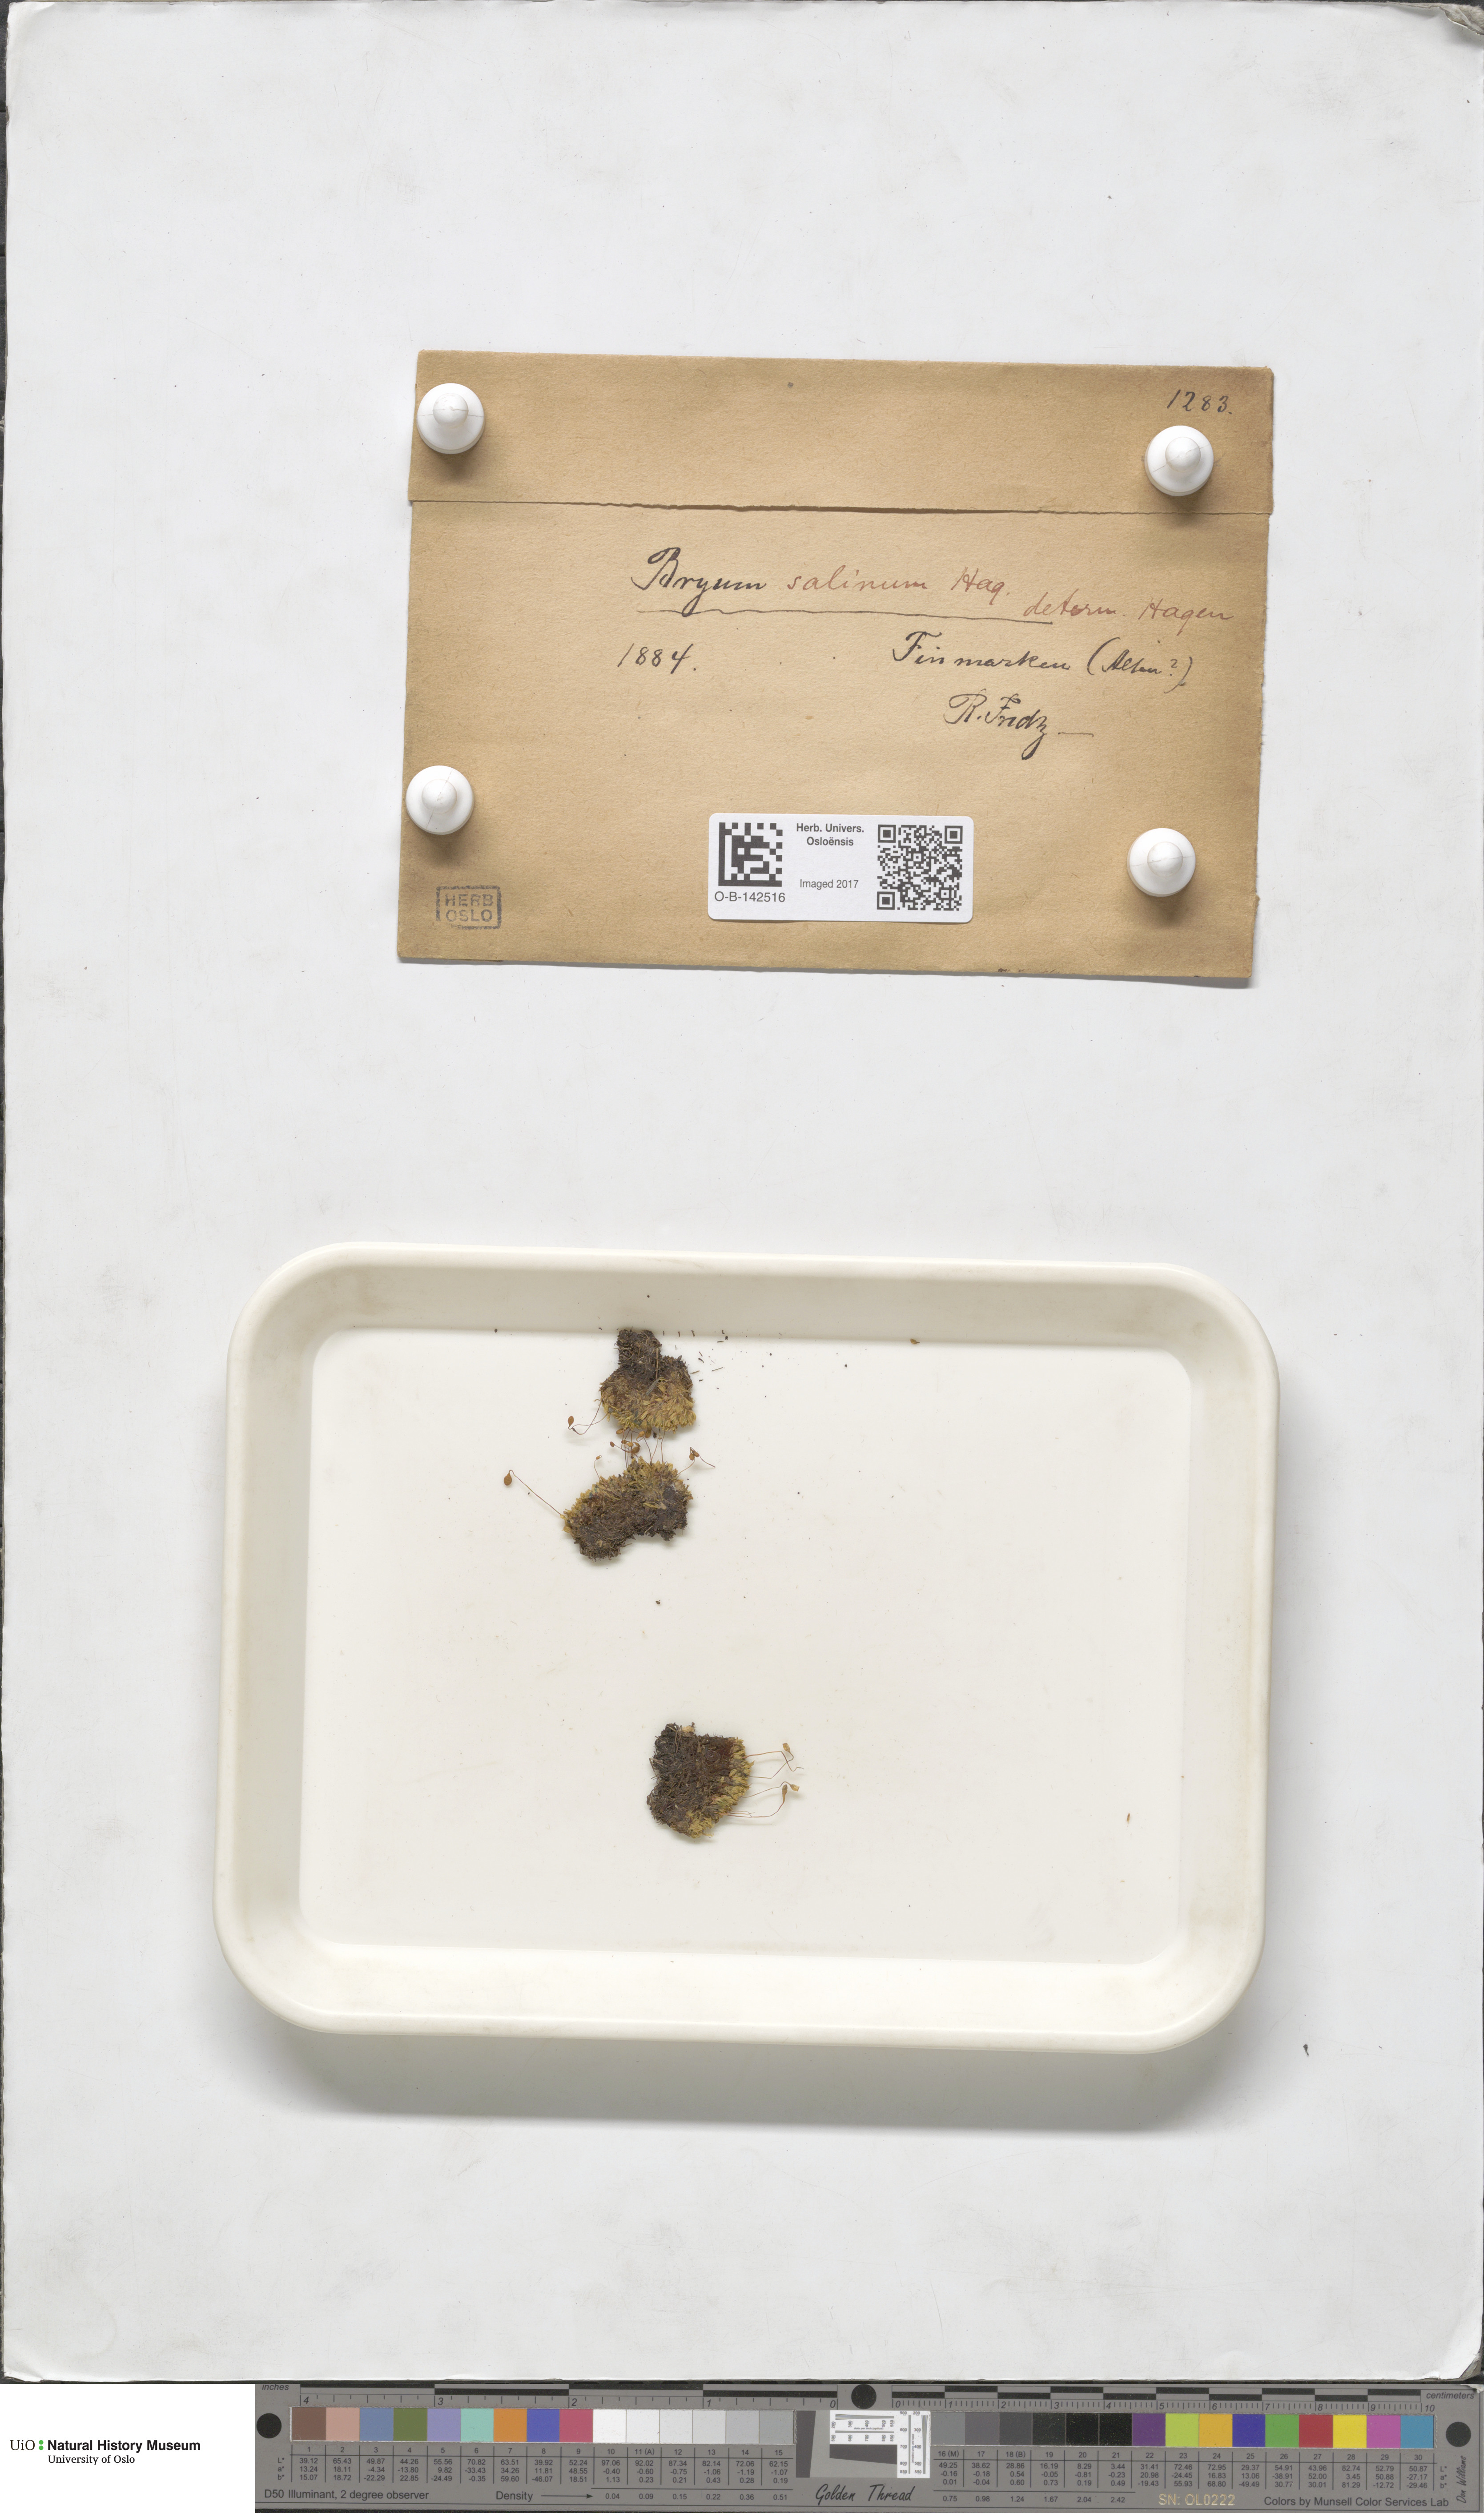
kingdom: Plantae
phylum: Bryophyta
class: Bryopsida
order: Bryales
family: Bryaceae
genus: Ptychostomum
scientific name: Ptychostomum salinum
